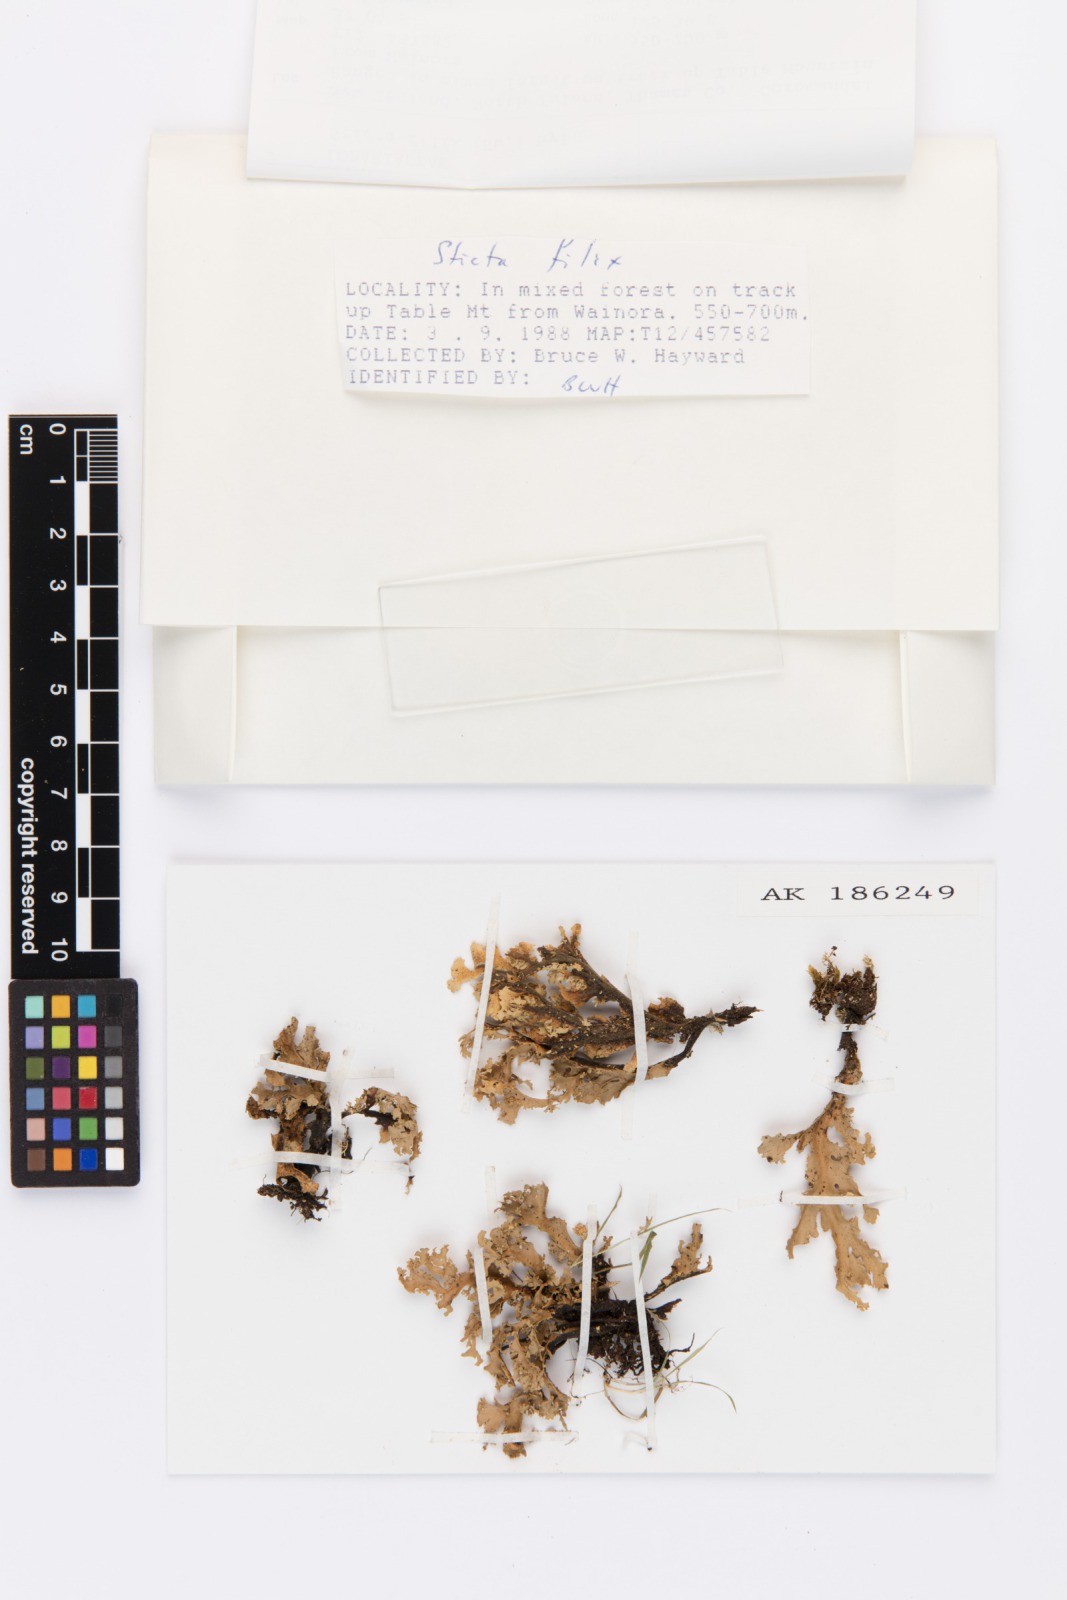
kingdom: Fungi
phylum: Ascomycota
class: Lecanoromycetes
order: Peltigerales
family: Lobariaceae
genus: Sticta
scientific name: Sticta filix
